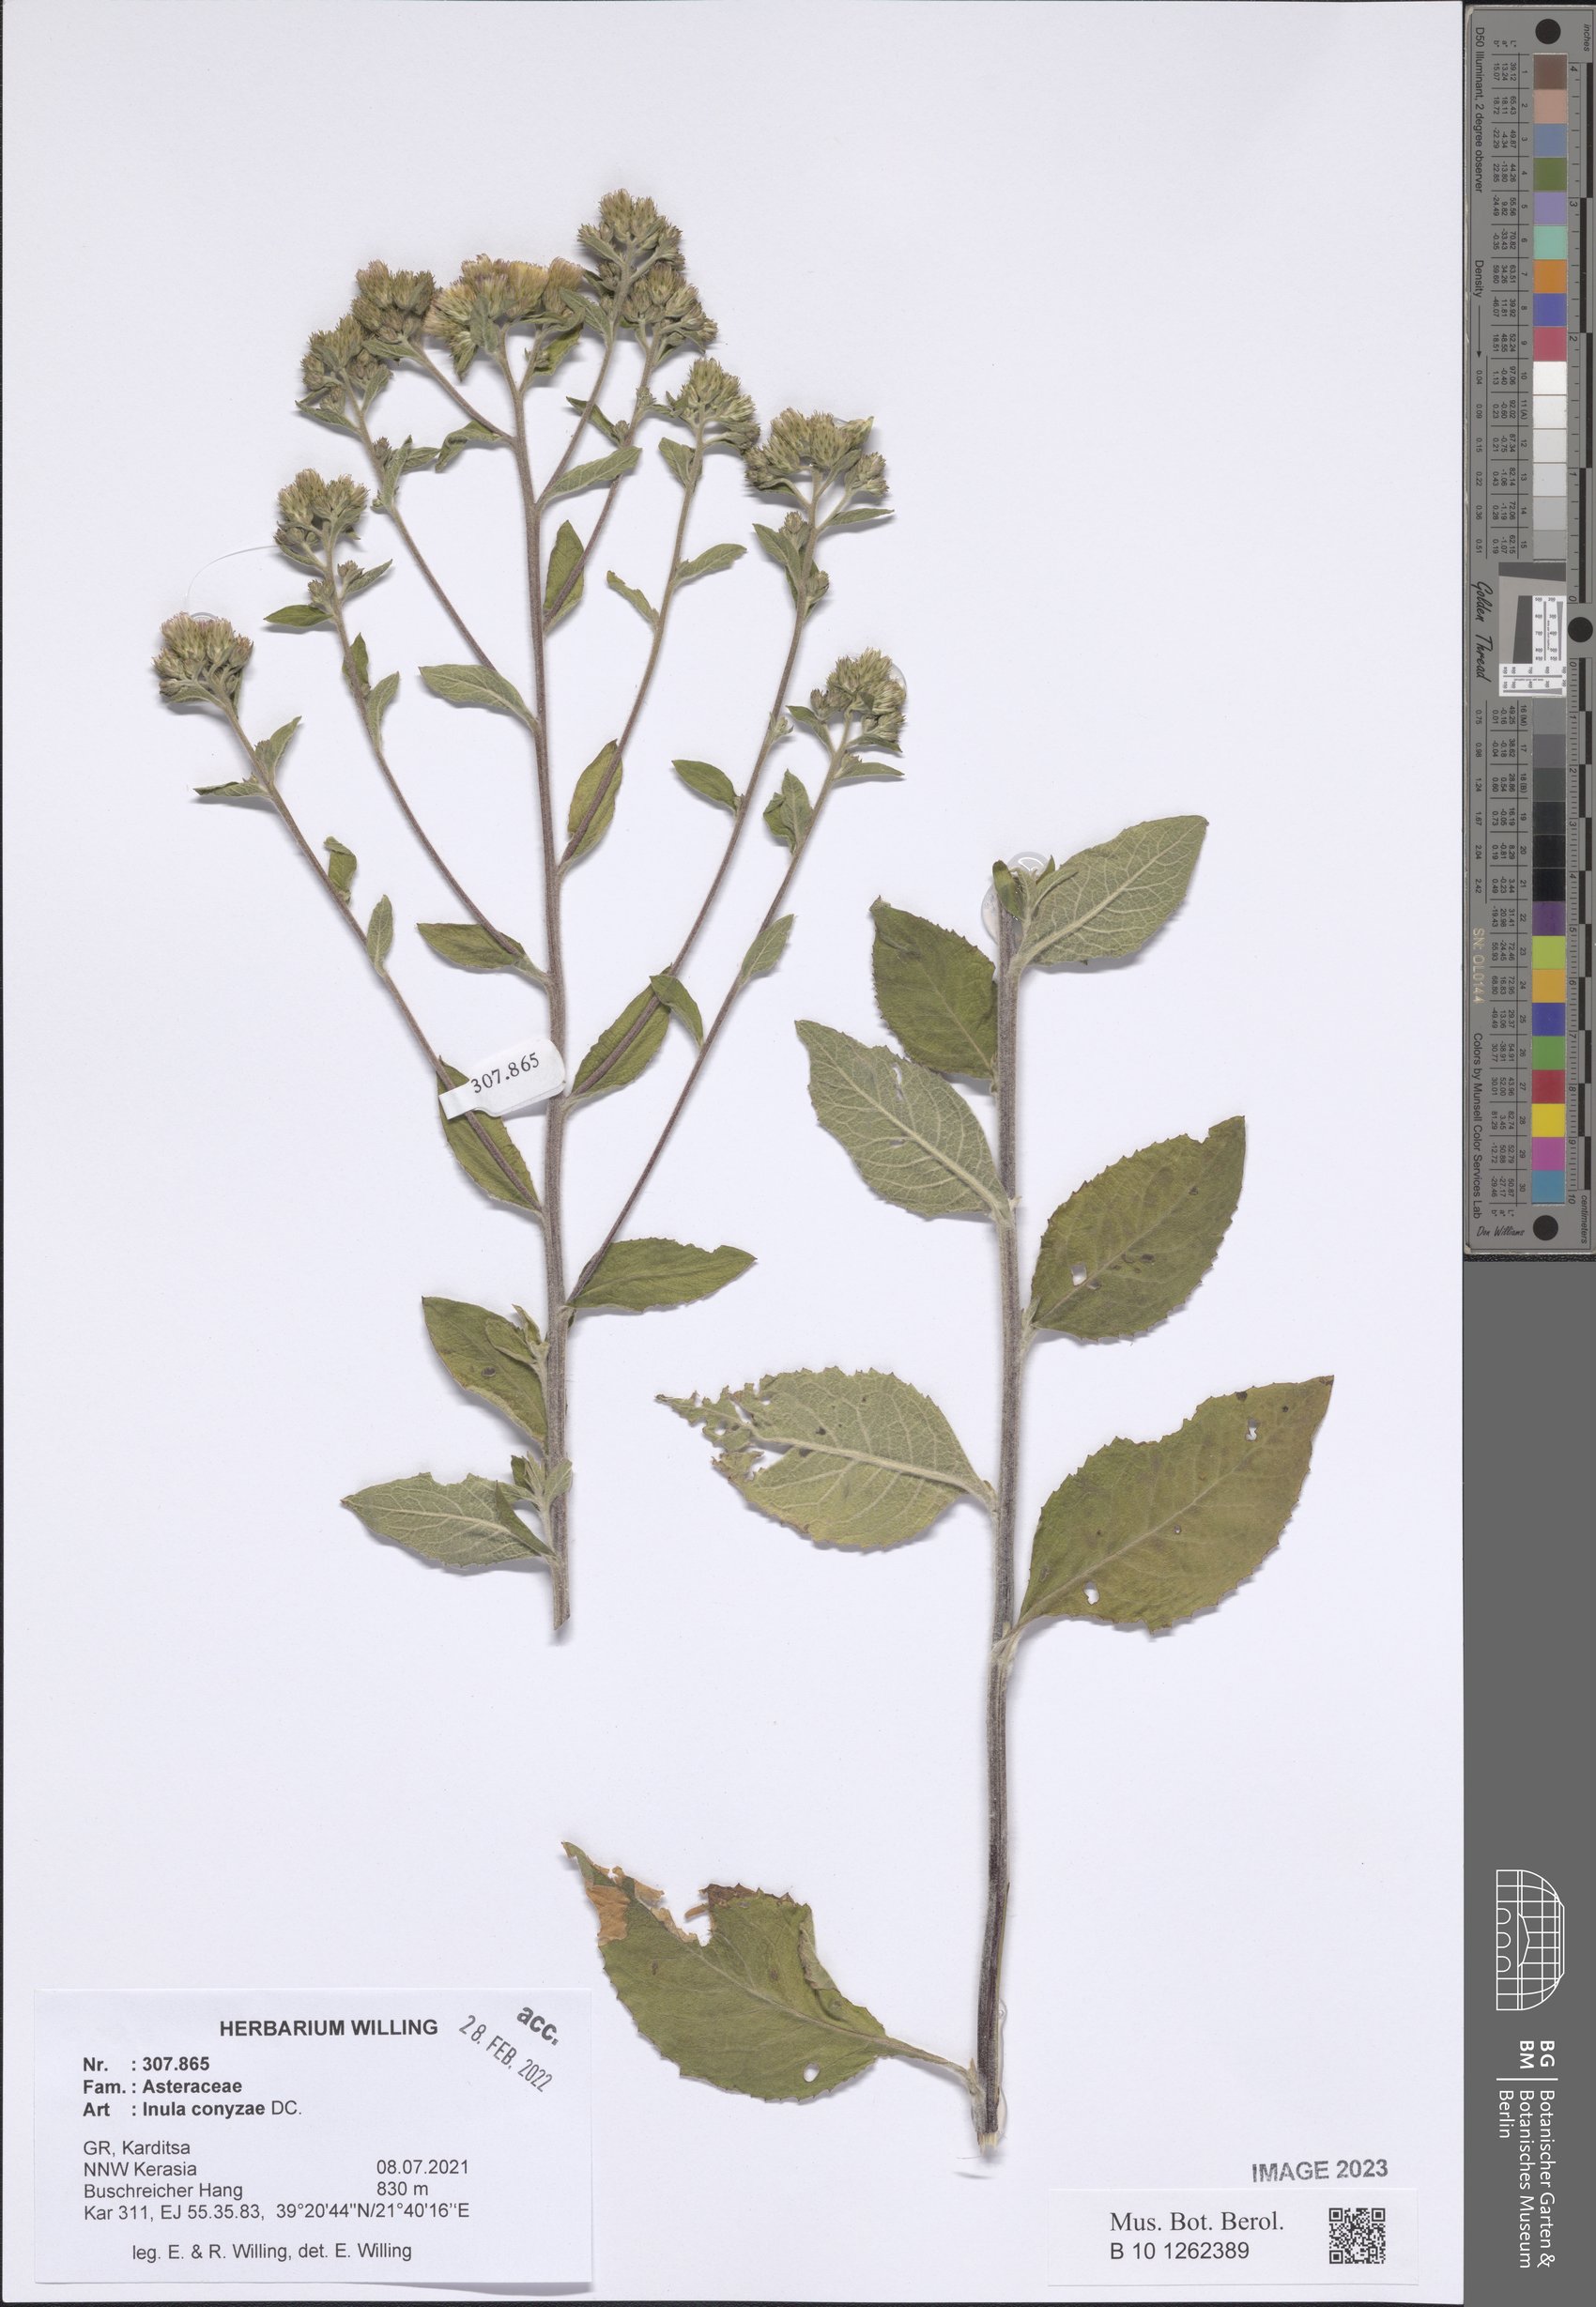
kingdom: Plantae
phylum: Tracheophyta
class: Magnoliopsida
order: Asterales
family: Asteraceae
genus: Pentanema
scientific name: Pentanema squarrosum
